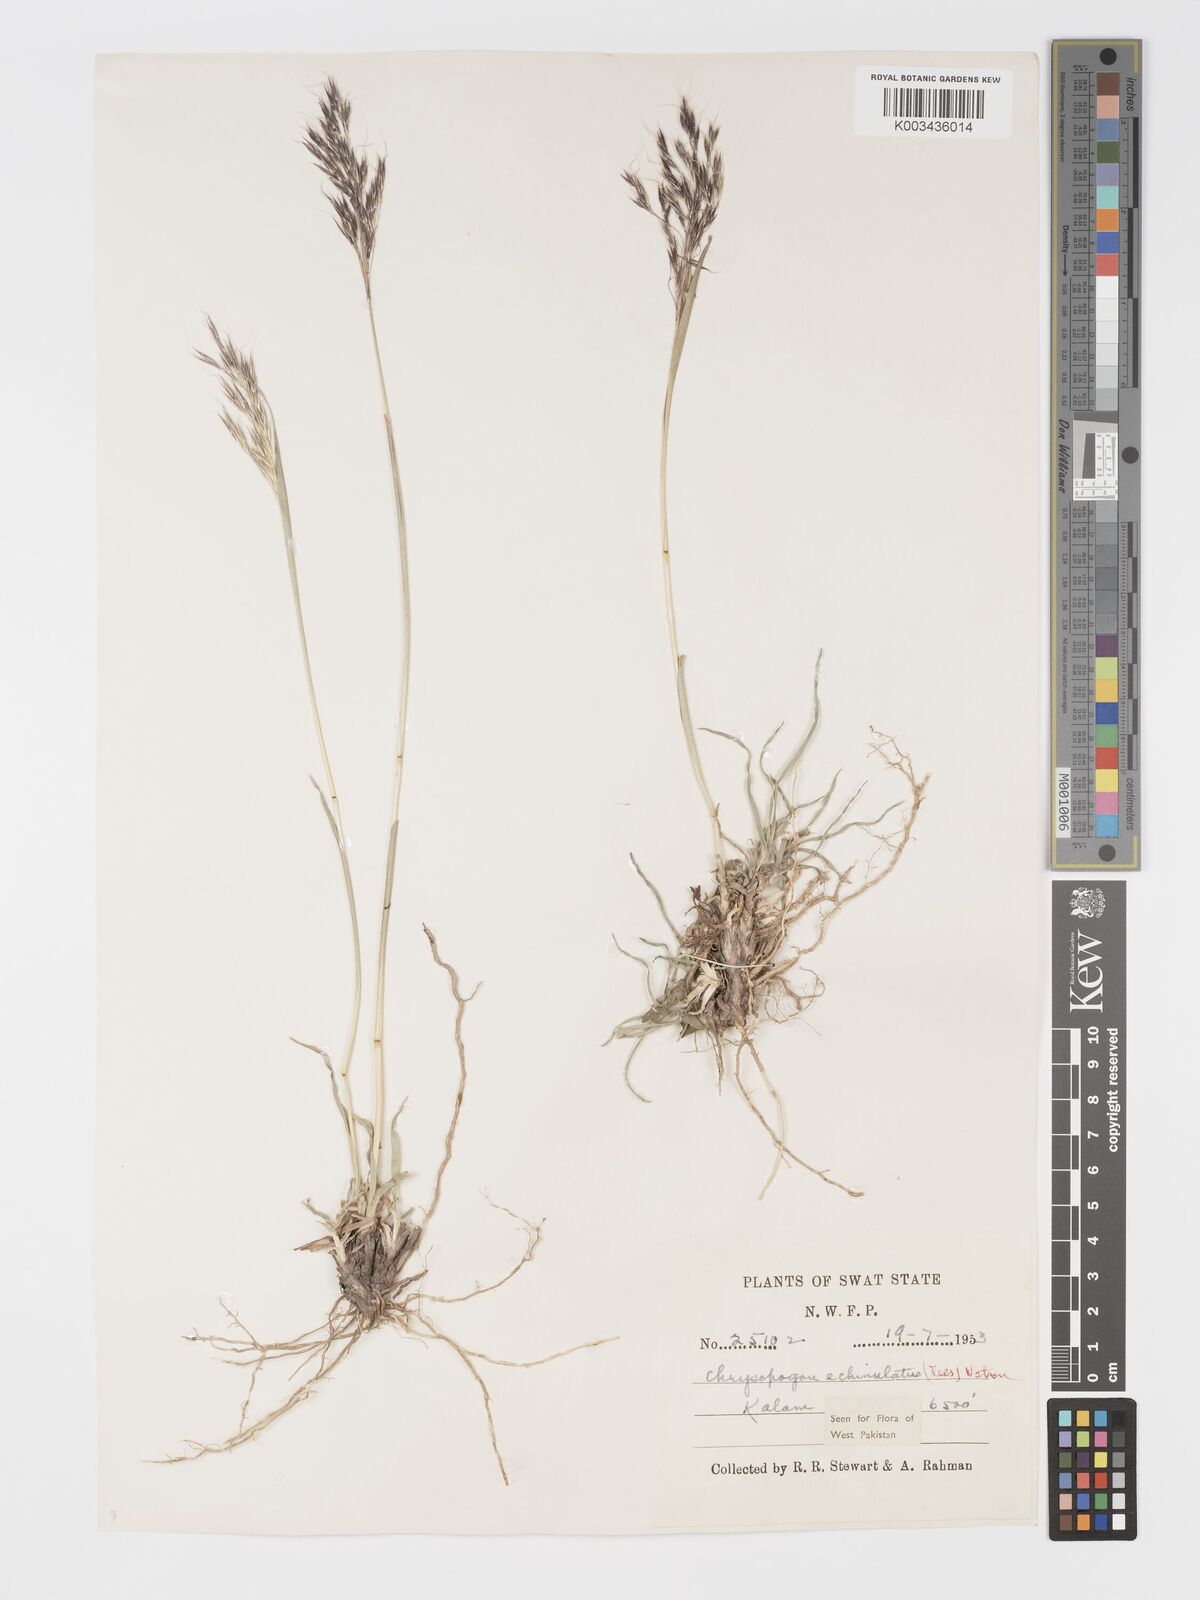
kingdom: Plantae
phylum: Tracheophyta
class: Liliopsida
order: Poales
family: Poaceae
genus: Chrysopogon
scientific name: Chrysopogon gryllus
